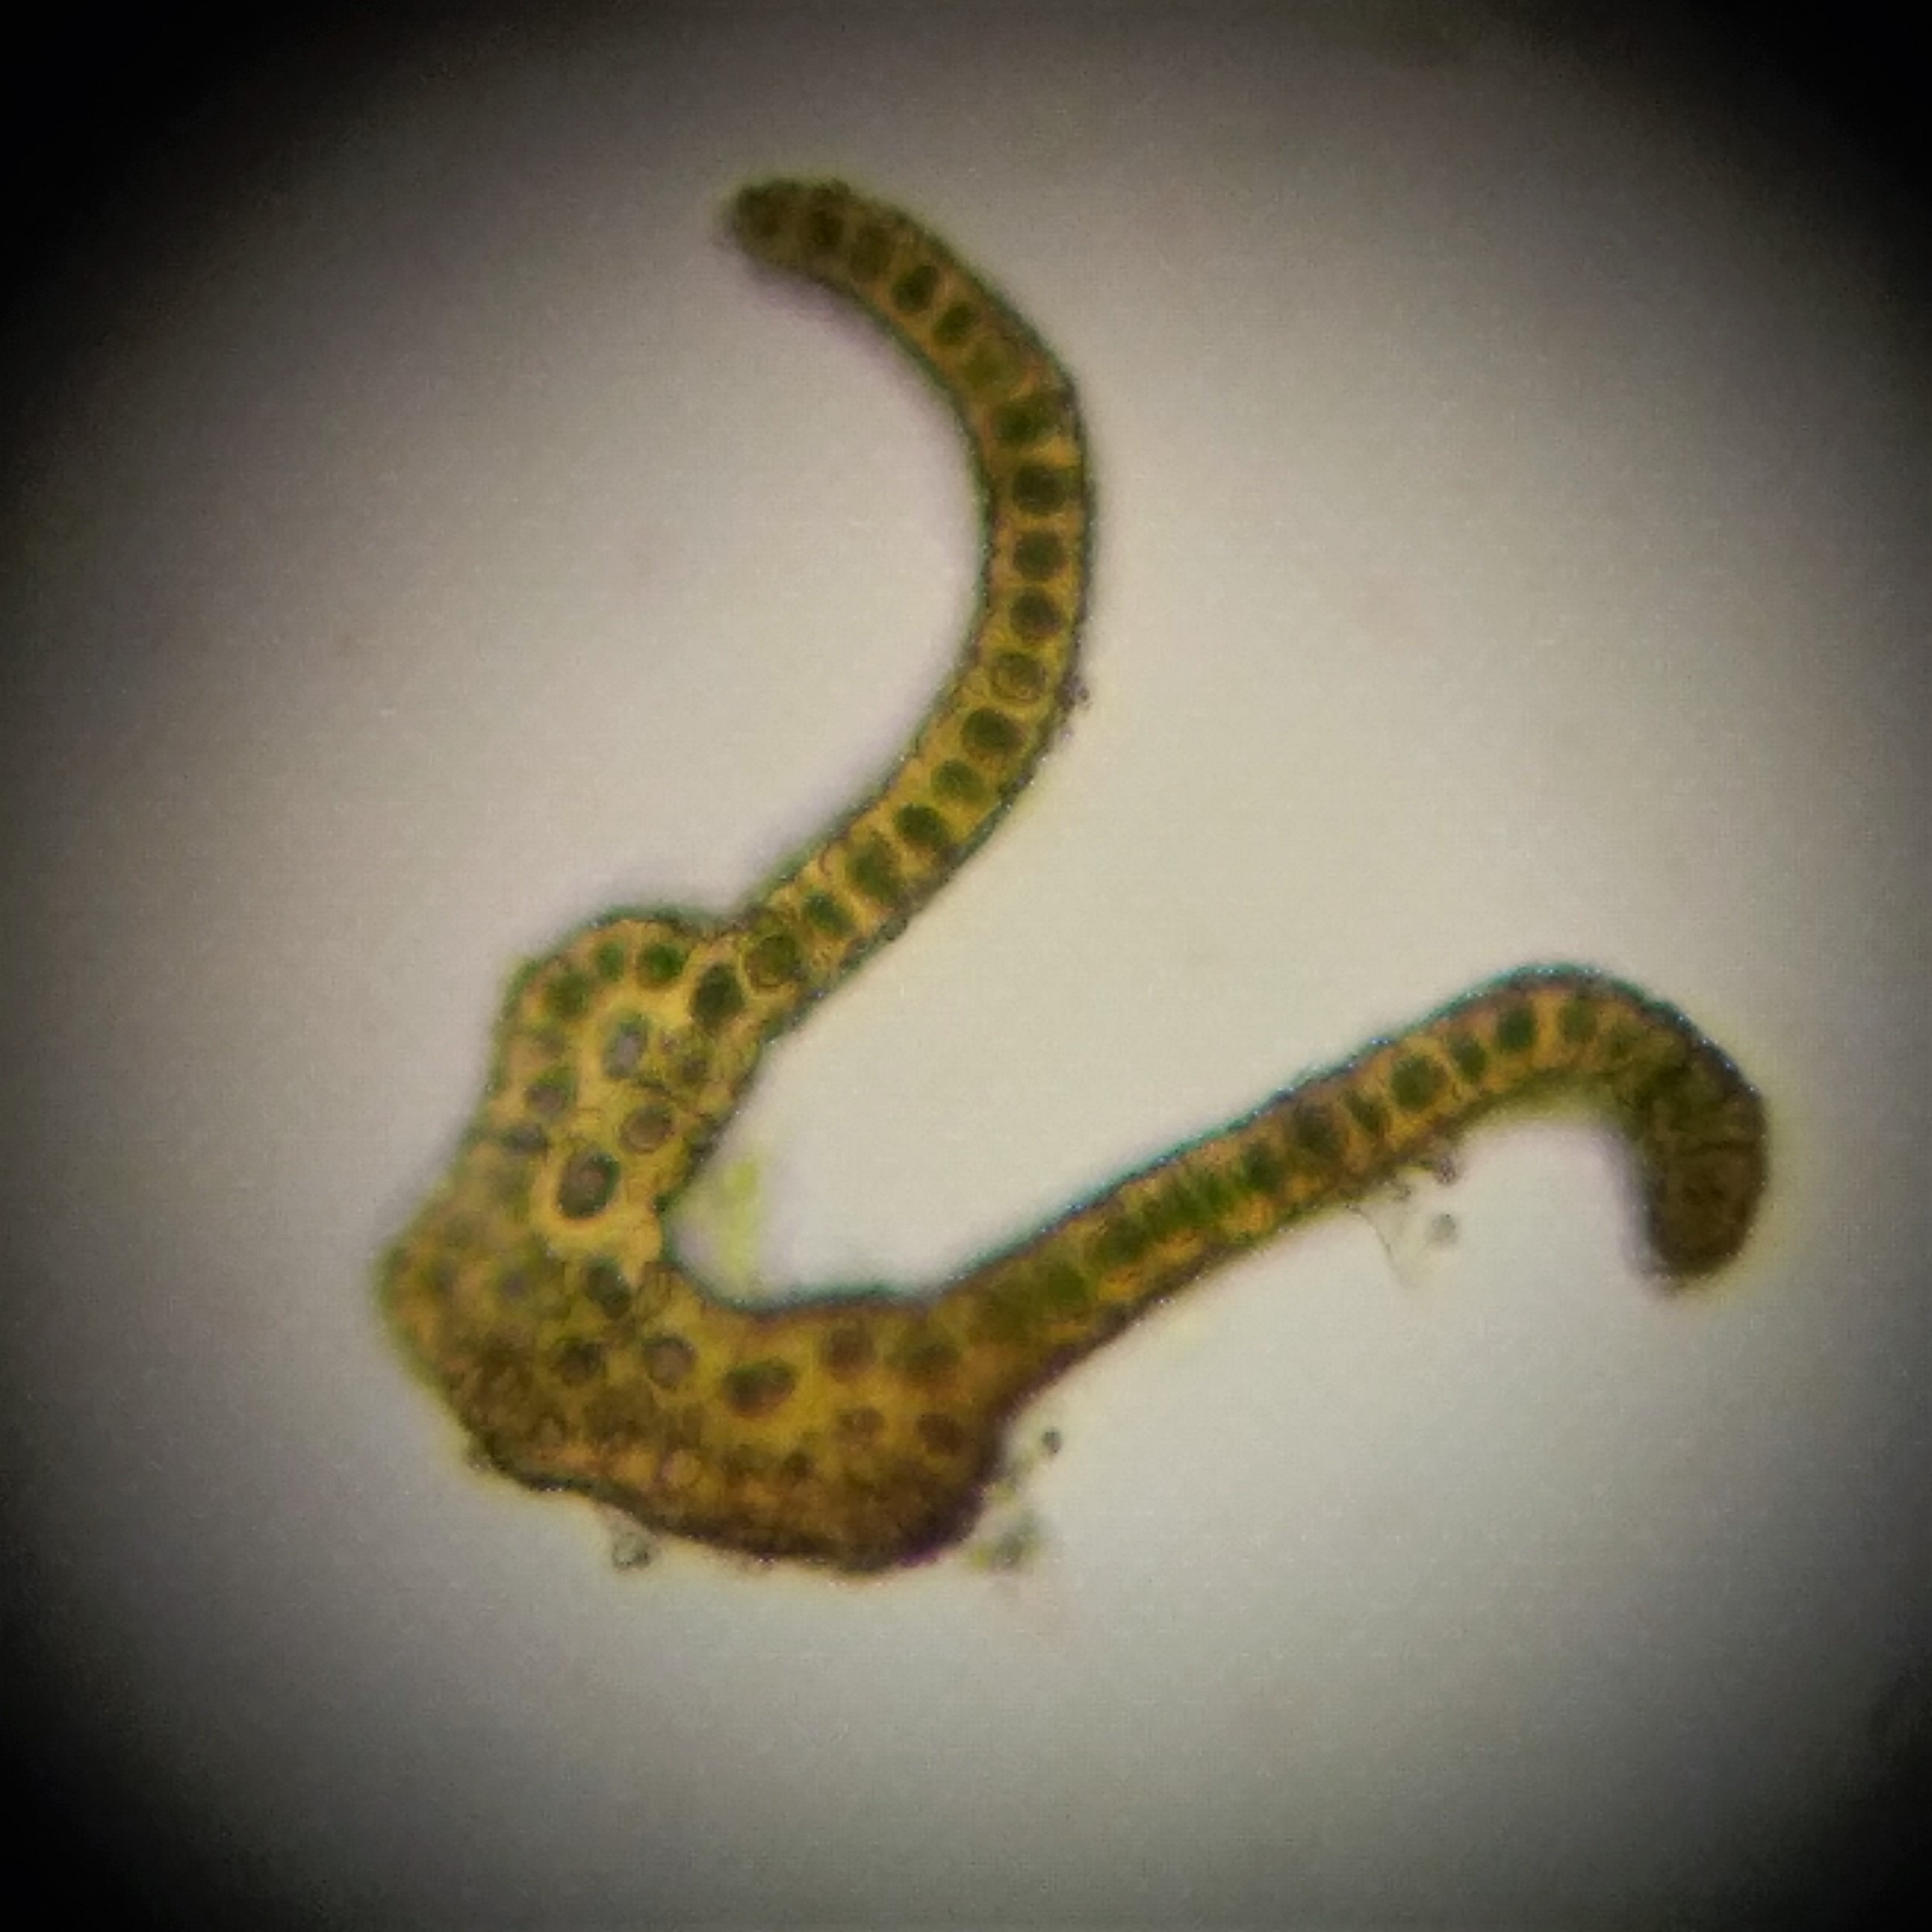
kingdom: Plantae
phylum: Bryophyta
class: Bryopsida
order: Grimmiales
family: Grimmiaceae
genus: Codriophorus
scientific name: Codriophorus aquaticus
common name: Kilde-børstemos
